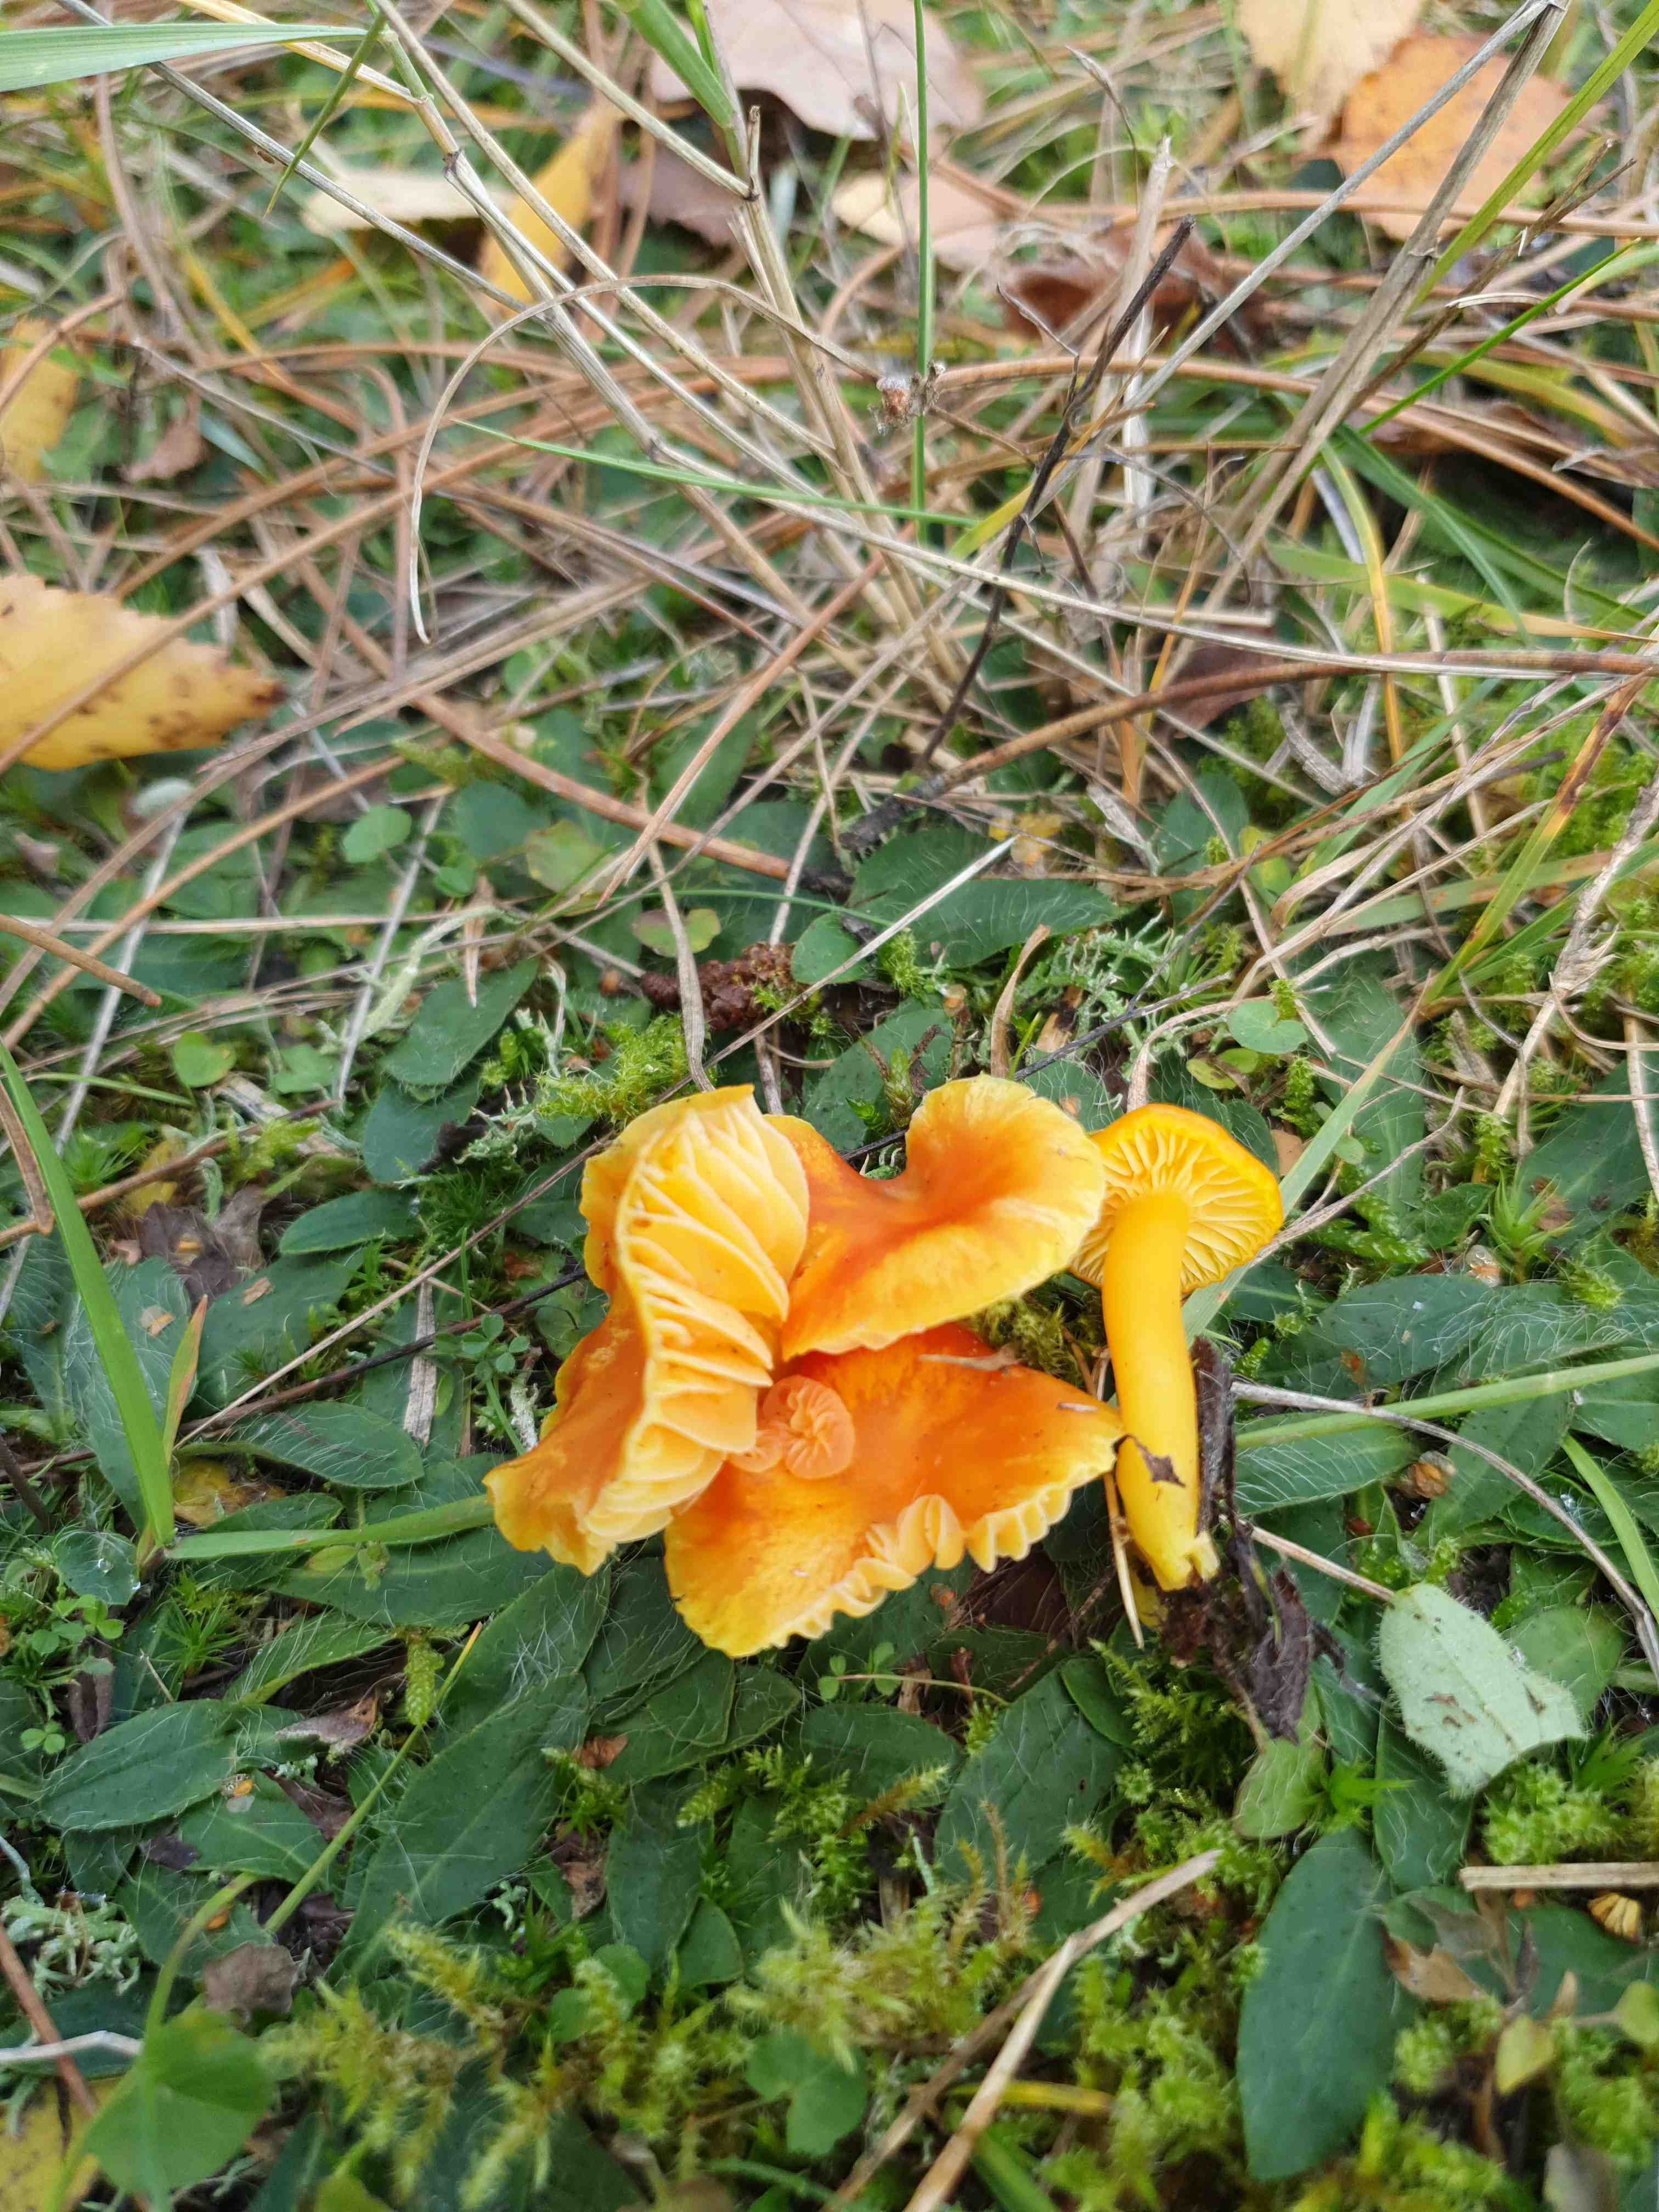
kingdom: Fungi
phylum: Basidiomycota
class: Agaricomycetes
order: Agaricales
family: Hygrophoraceae
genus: Hygrocybe
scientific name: Hygrocybe ceracea
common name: voksgul vokshat
